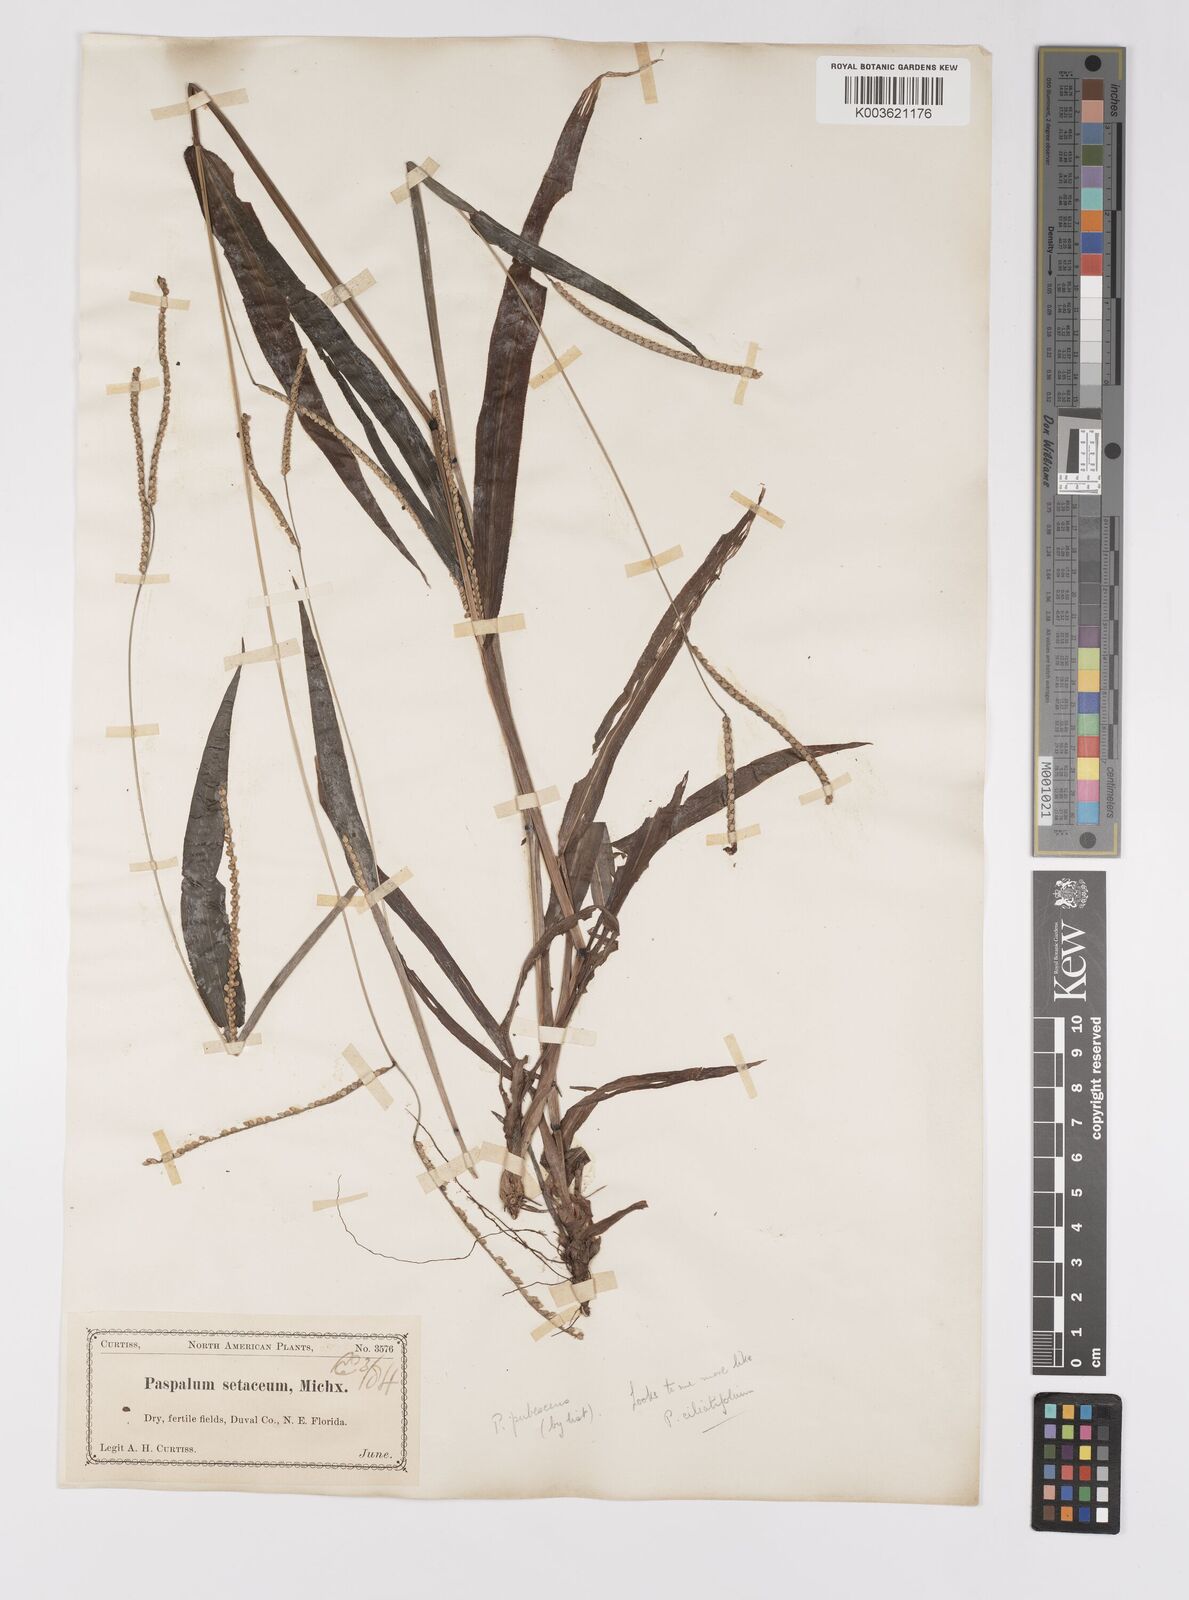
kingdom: Plantae
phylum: Tracheophyta
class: Liliopsida
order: Poales
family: Poaceae
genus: Paspalum
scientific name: Paspalum setaceum
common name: Slender paspalum
